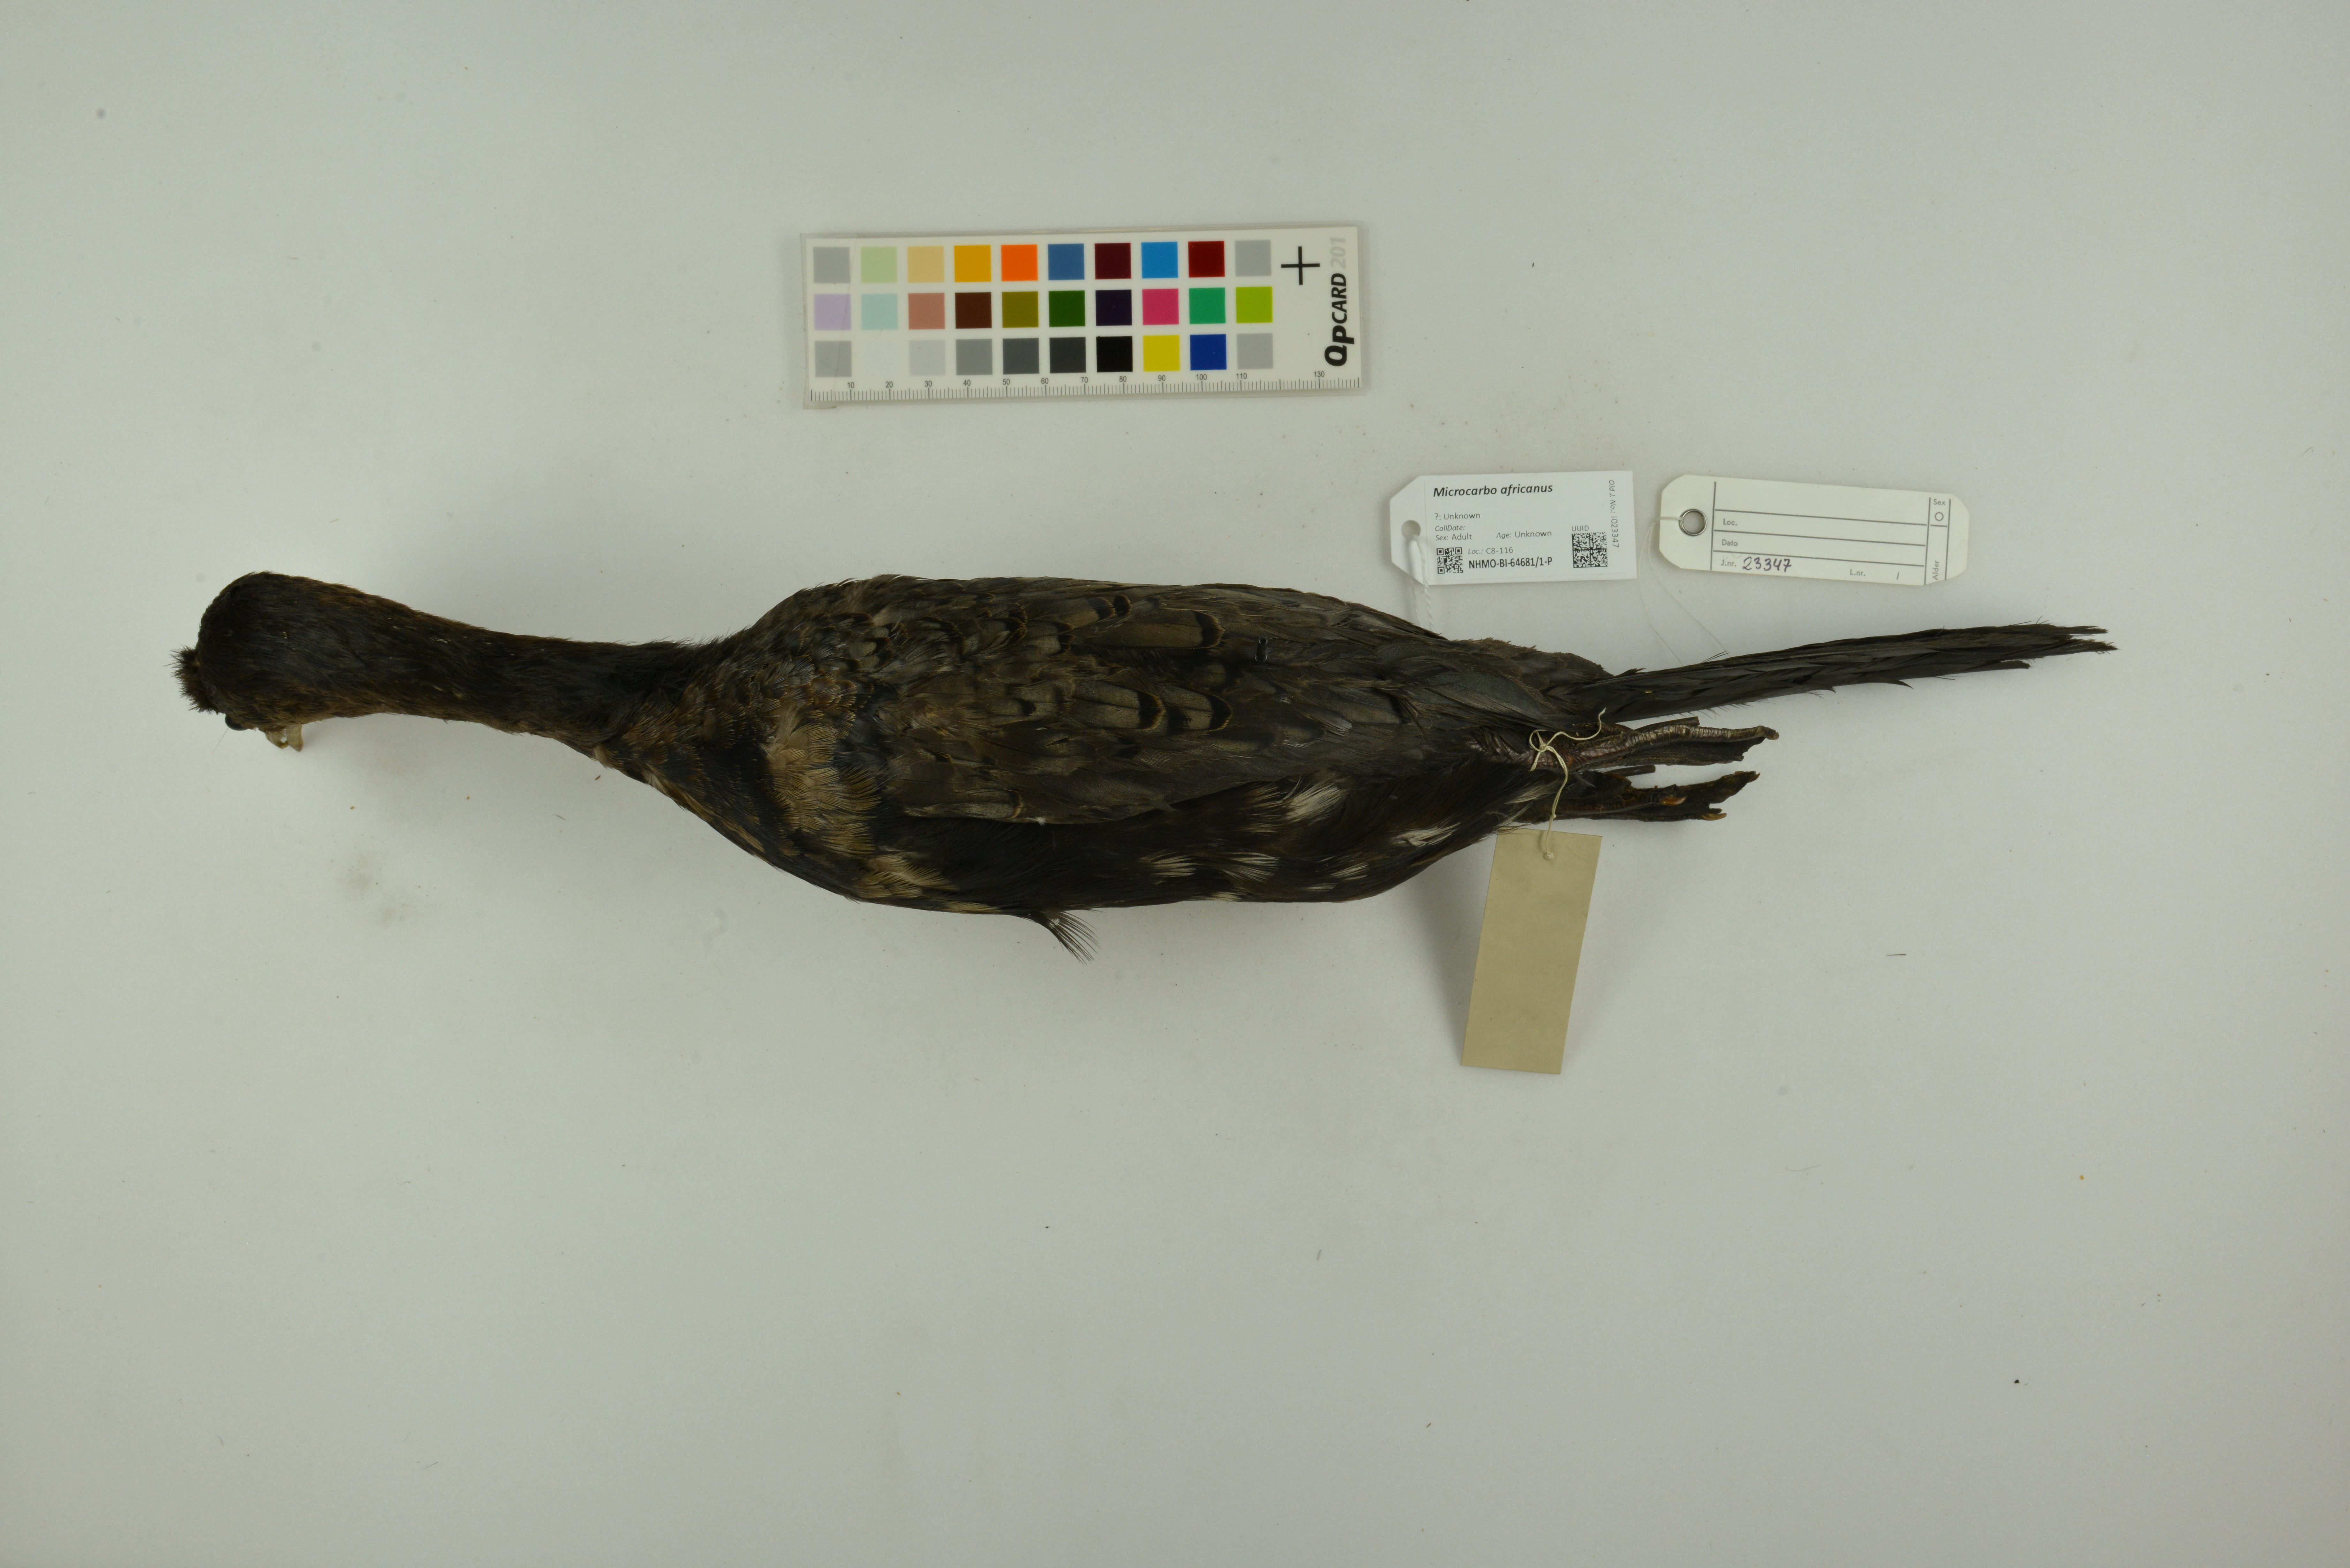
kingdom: Animalia
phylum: Chordata
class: Aves
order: Suliformes
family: Phalacrocoracidae
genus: Microcarbo
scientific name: Microcarbo africanus
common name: Long-tailed cormorant
